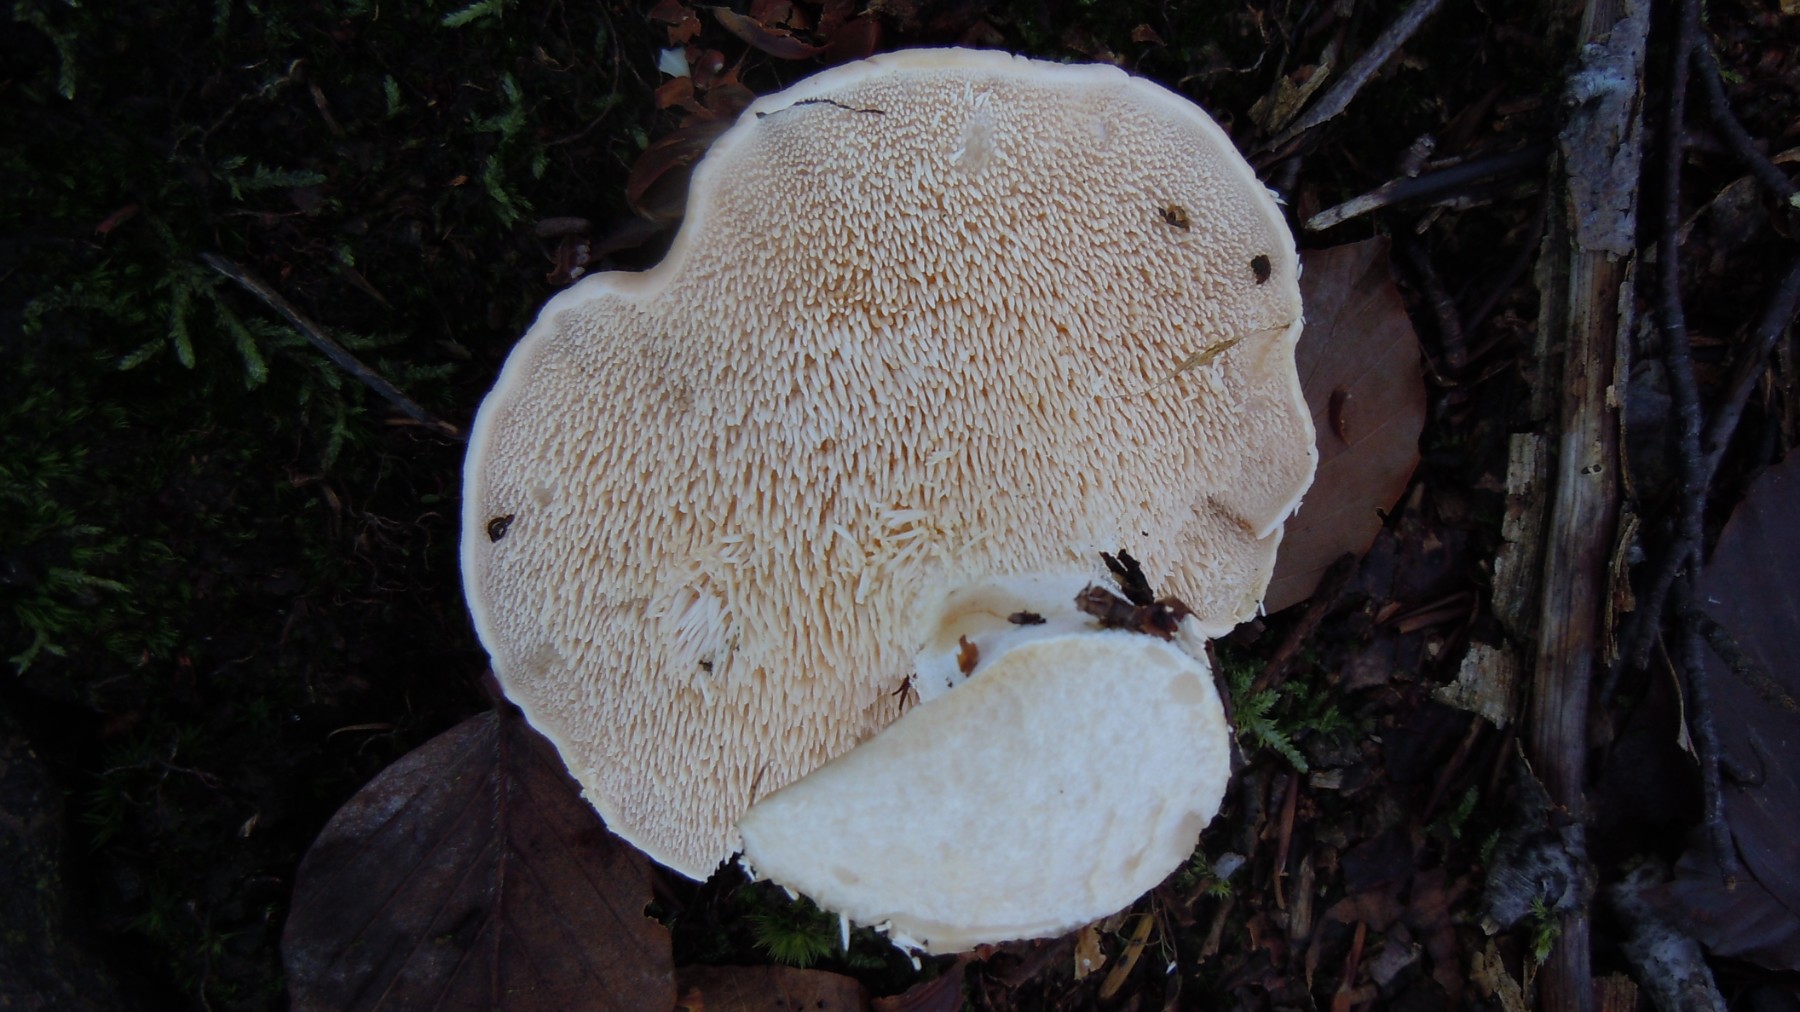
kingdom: Fungi
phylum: Basidiomycota
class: Agaricomycetes
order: Cantharellales
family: Hydnaceae
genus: Hydnum
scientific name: Hydnum repandum
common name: almindelig pigsvamp
